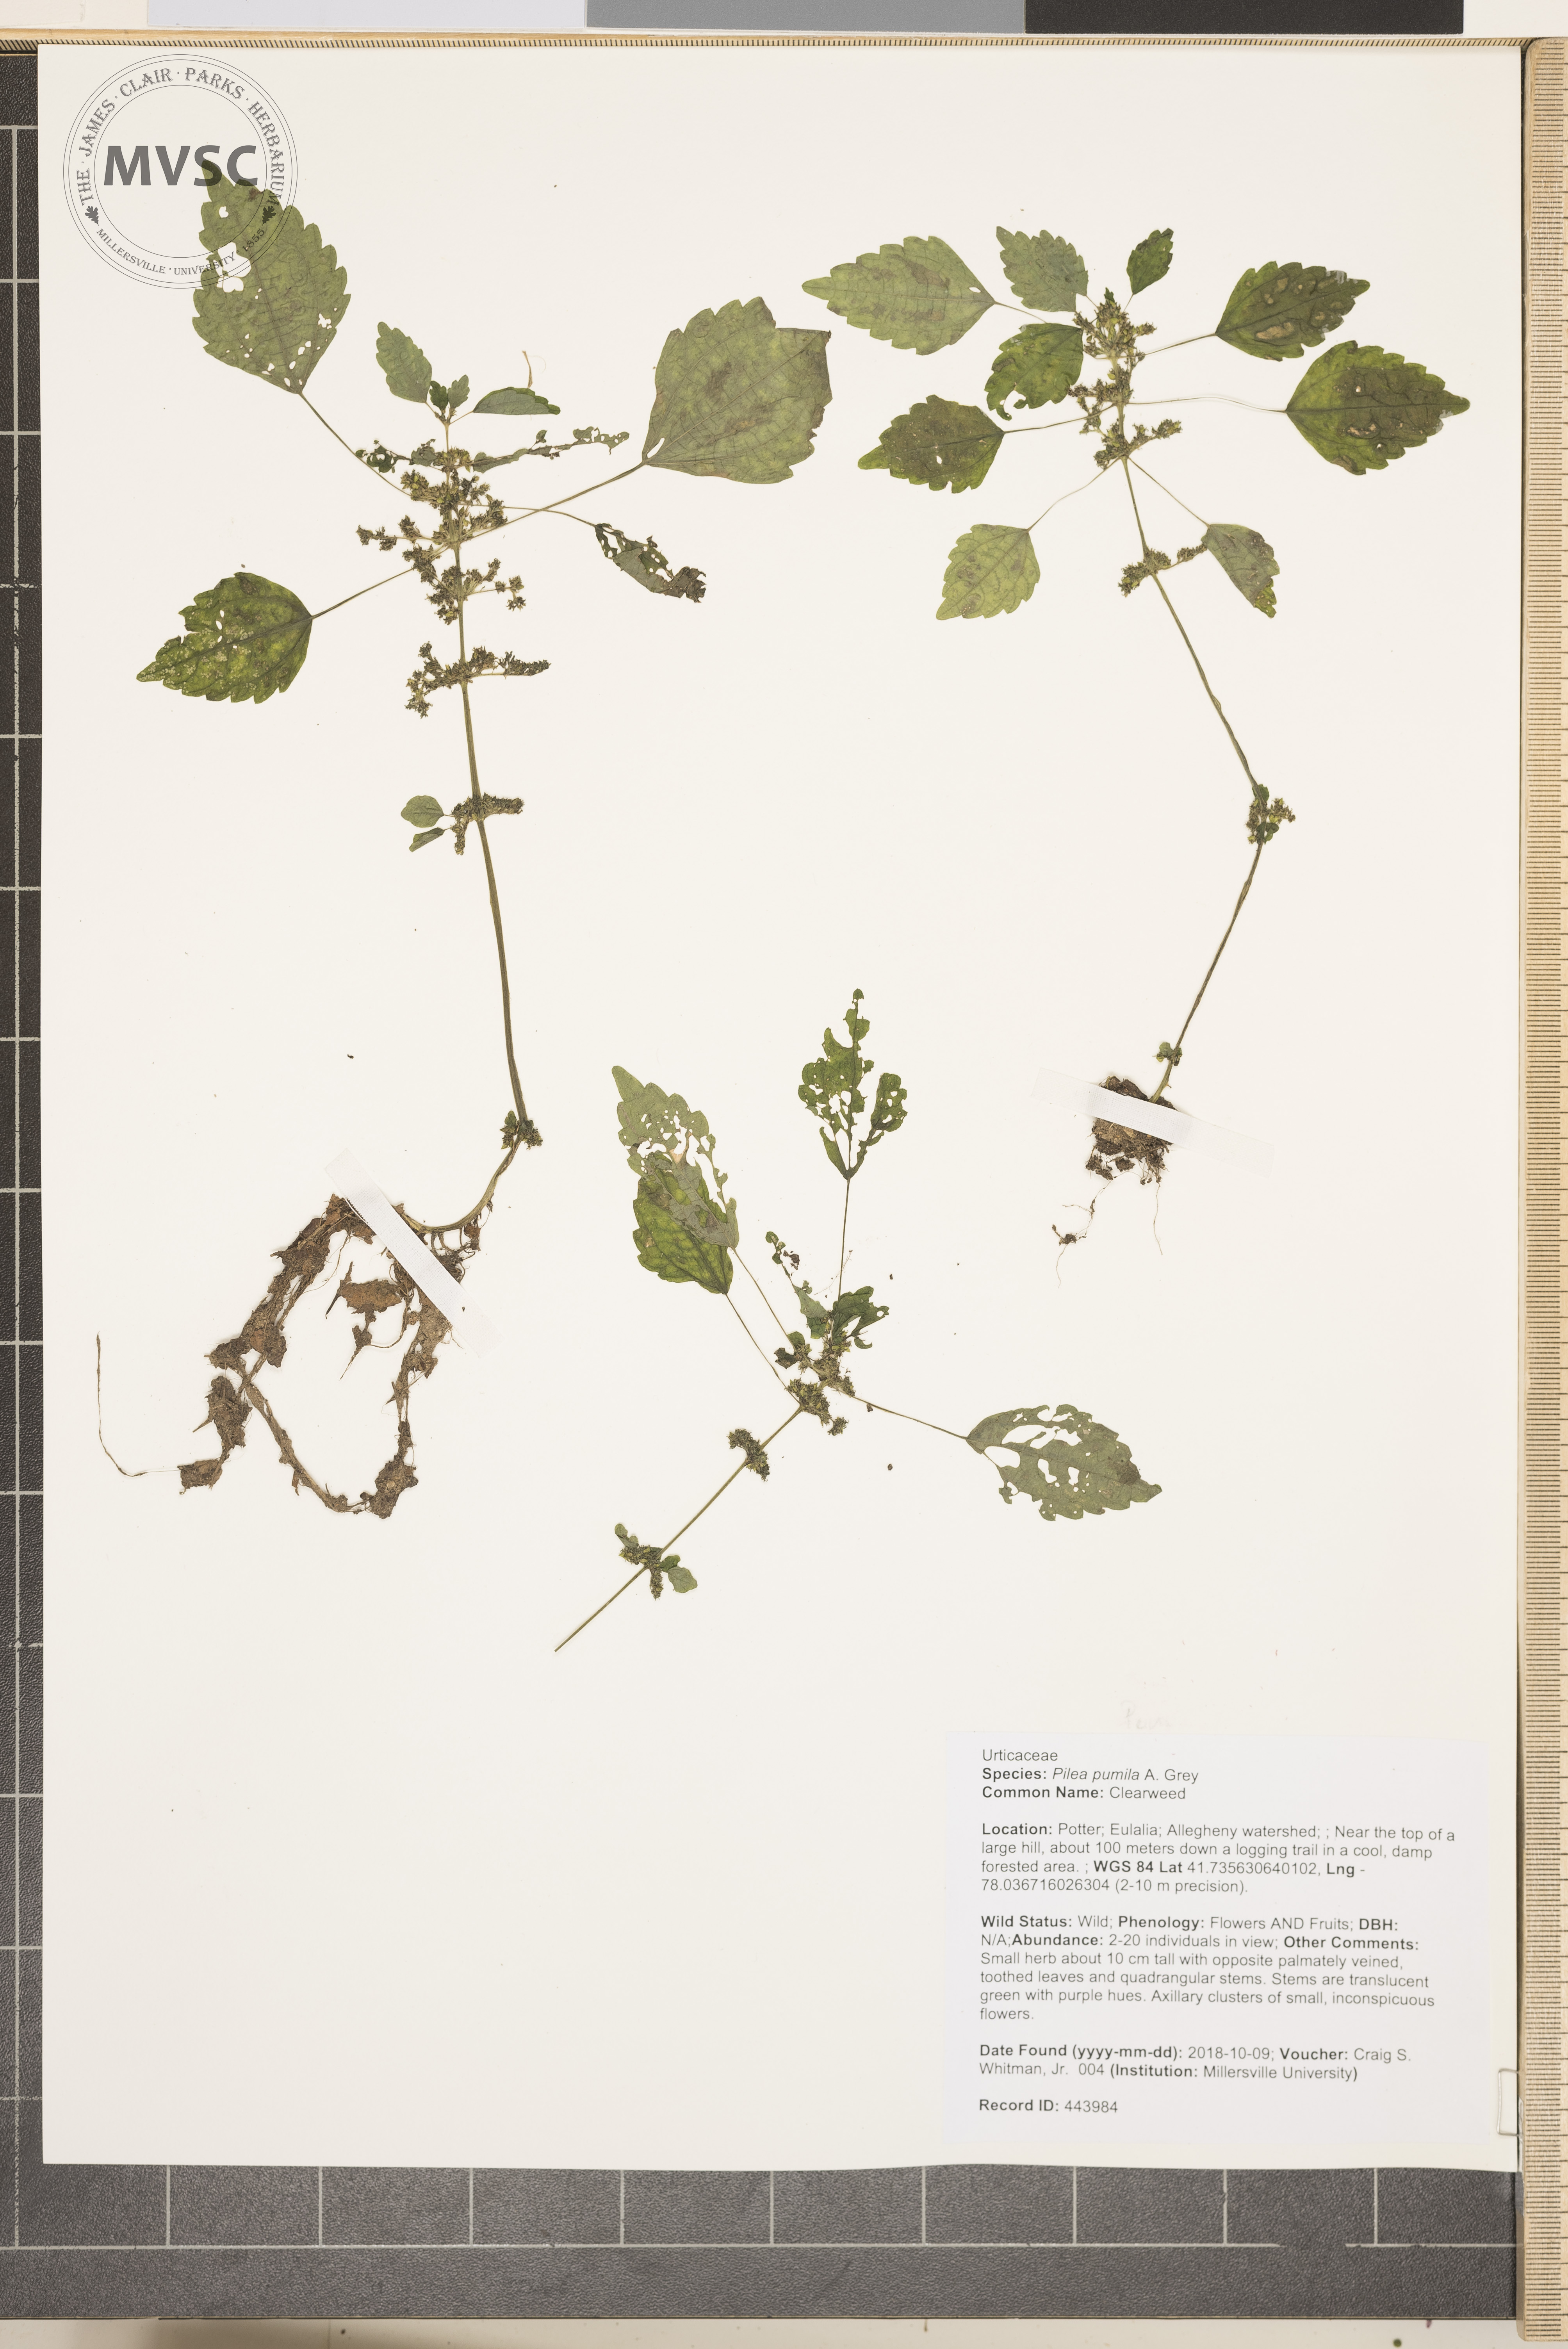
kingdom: Plantae
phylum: Tracheophyta
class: Magnoliopsida
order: Rosales
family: Urticaceae
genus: Pilea
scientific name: Pilea pumila
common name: Clearweed
